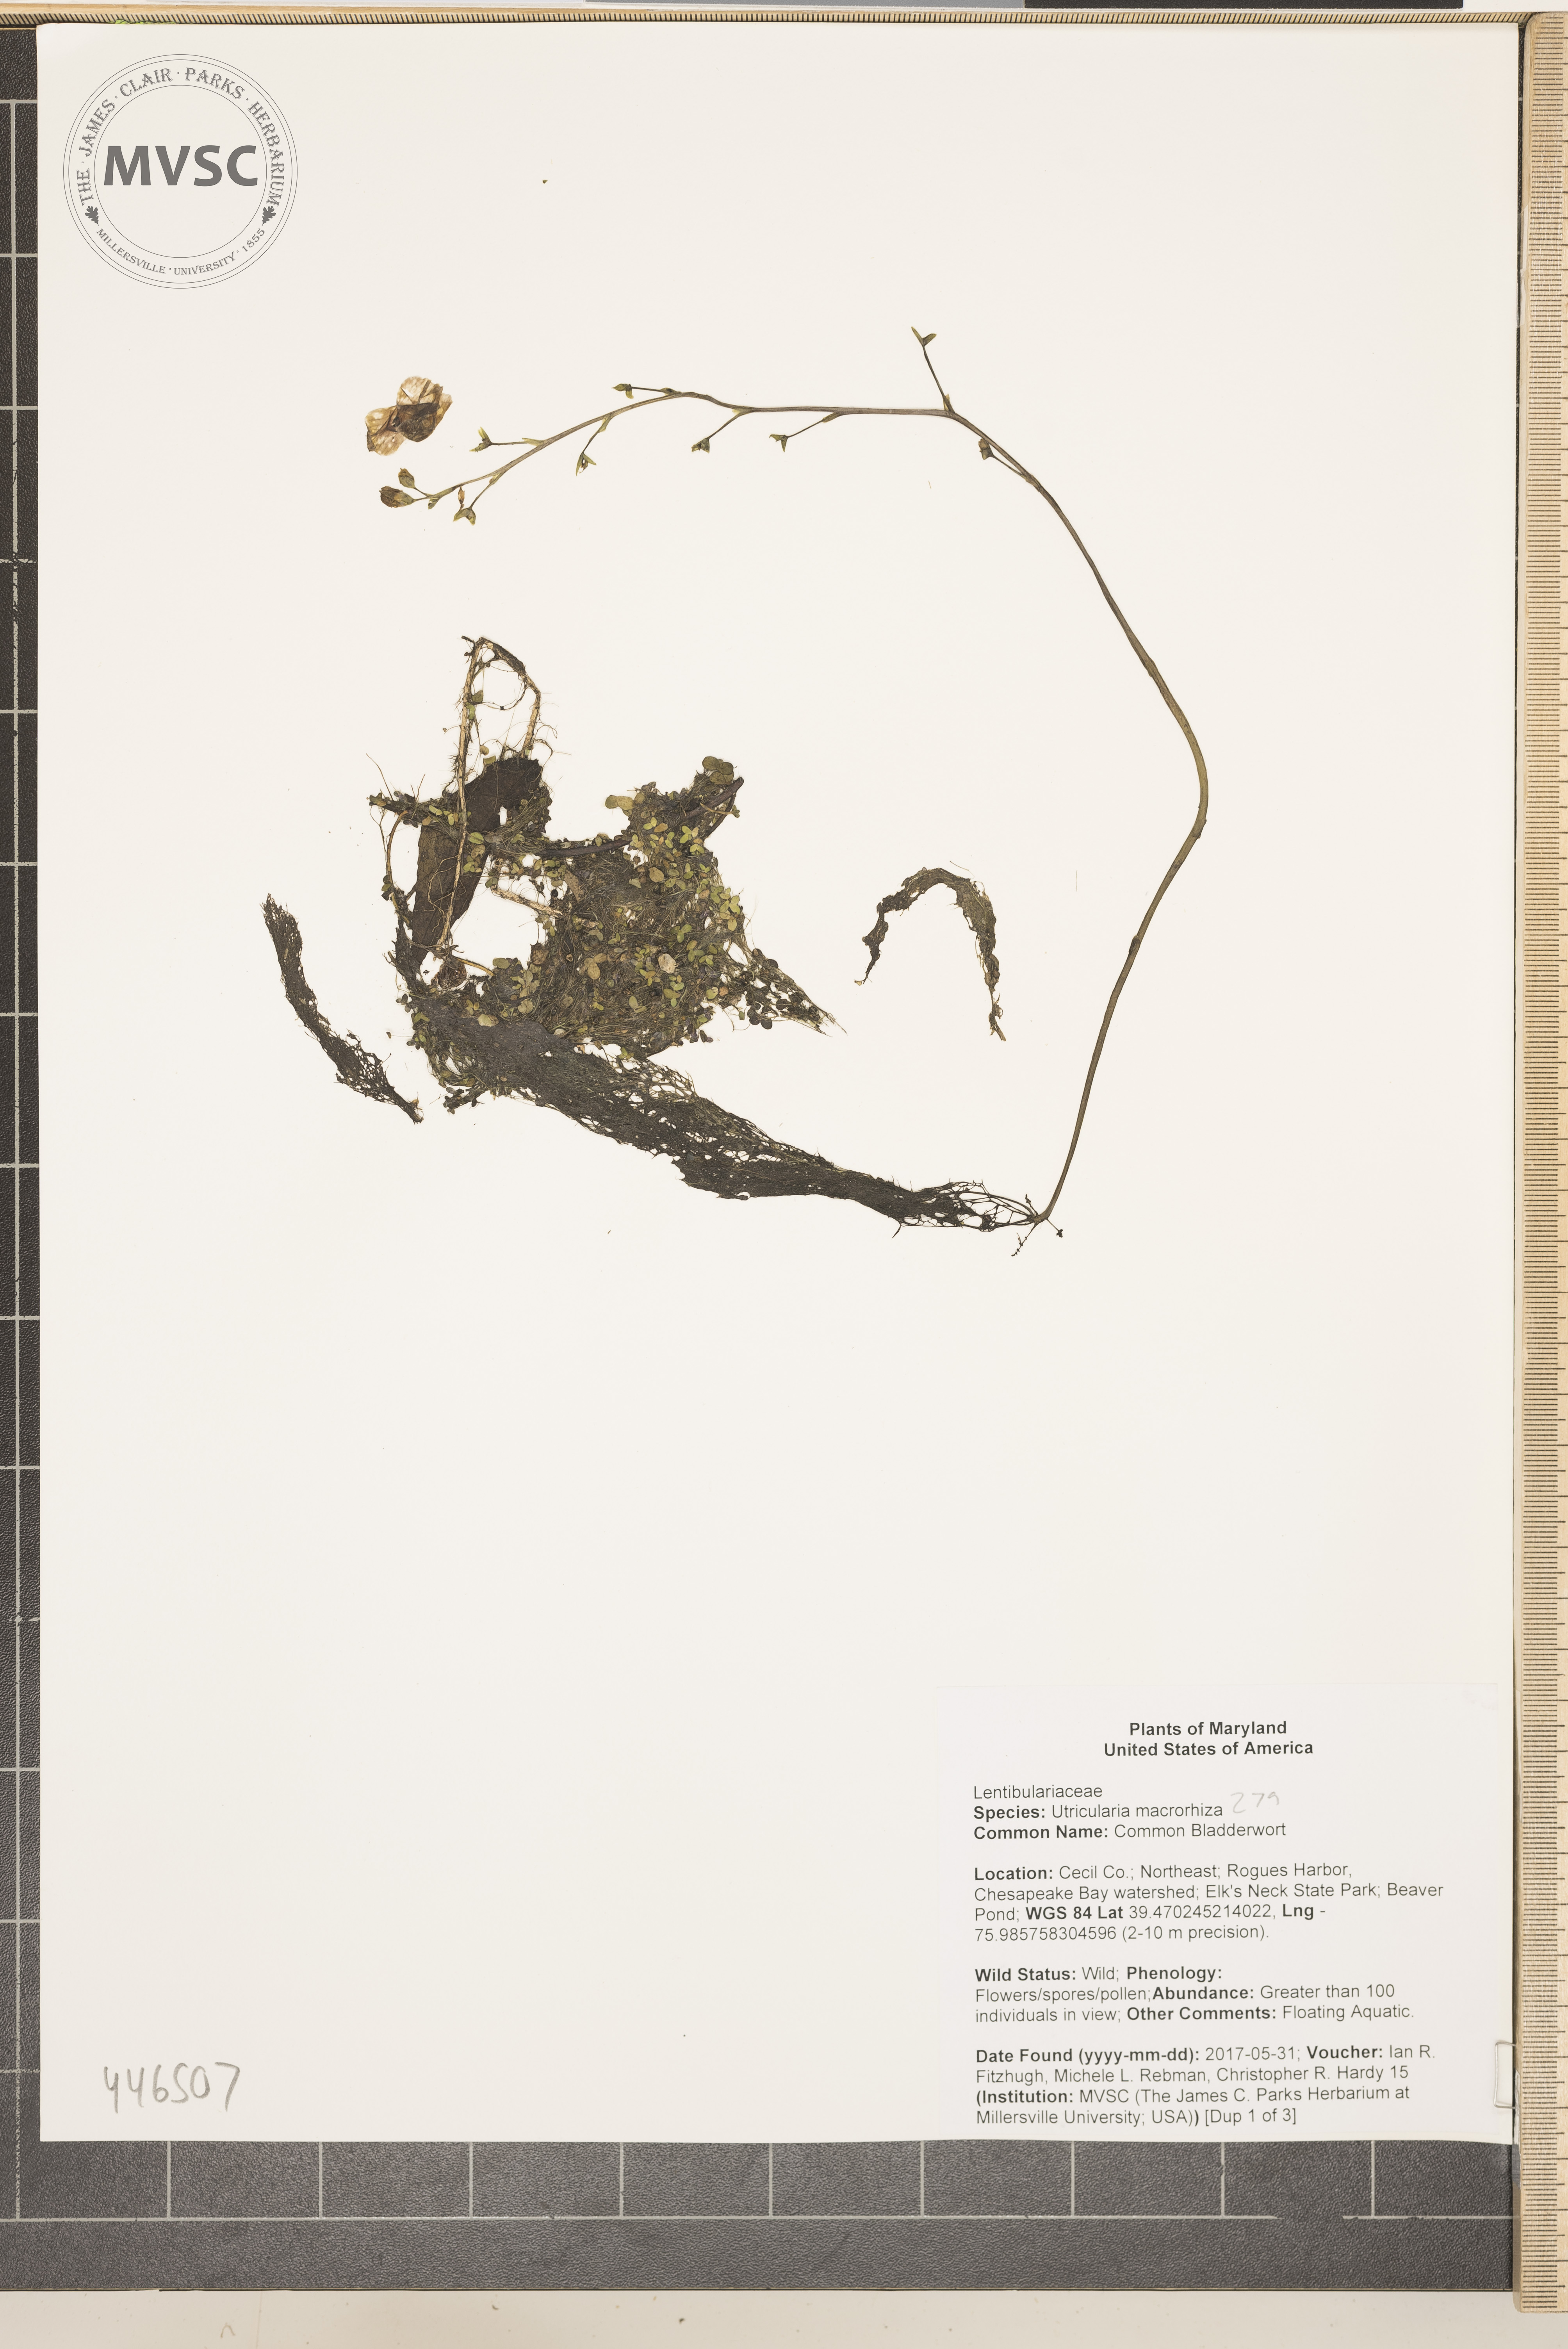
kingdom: Plantae
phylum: Tracheophyta
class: Magnoliopsida
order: Lamiales
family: Lentibulariaceae
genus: Utricularia
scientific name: Utricularia macrorhiza
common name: Common Bladderwort
